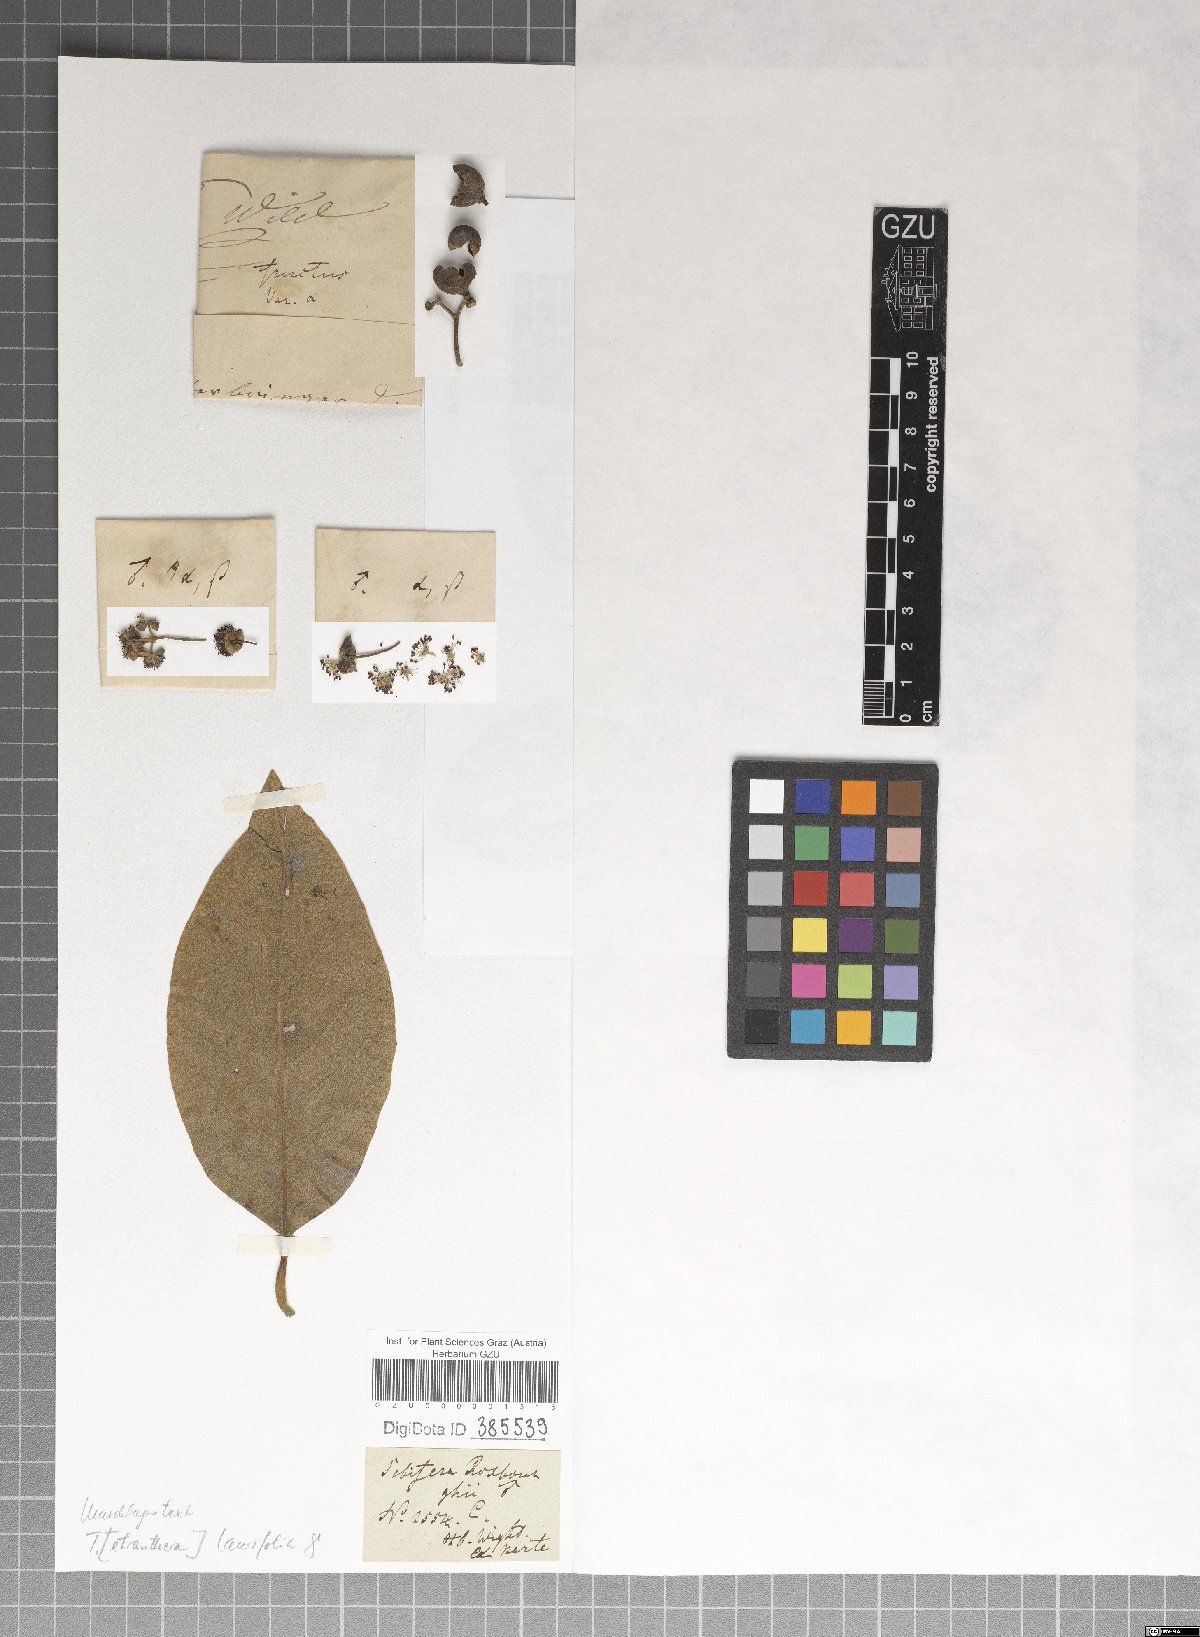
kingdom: Plantae
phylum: Tracheophyta
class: Magnoliopsida
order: Laurales
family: Lauraceae
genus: Litsea
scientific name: Litsea glutinosa
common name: Indian-laurel
